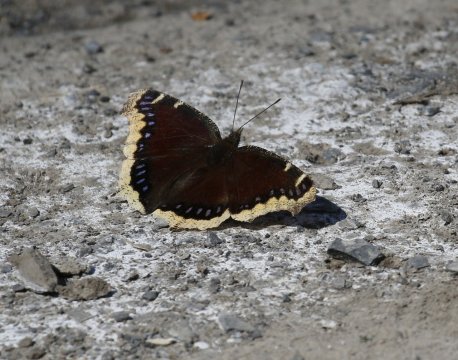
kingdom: Animalia
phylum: Arthropoda
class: Insecta
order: Lepidoptera
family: Nymphalidae
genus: Nymphalis
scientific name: Nymphalis antiopa
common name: Mourning Cloak
